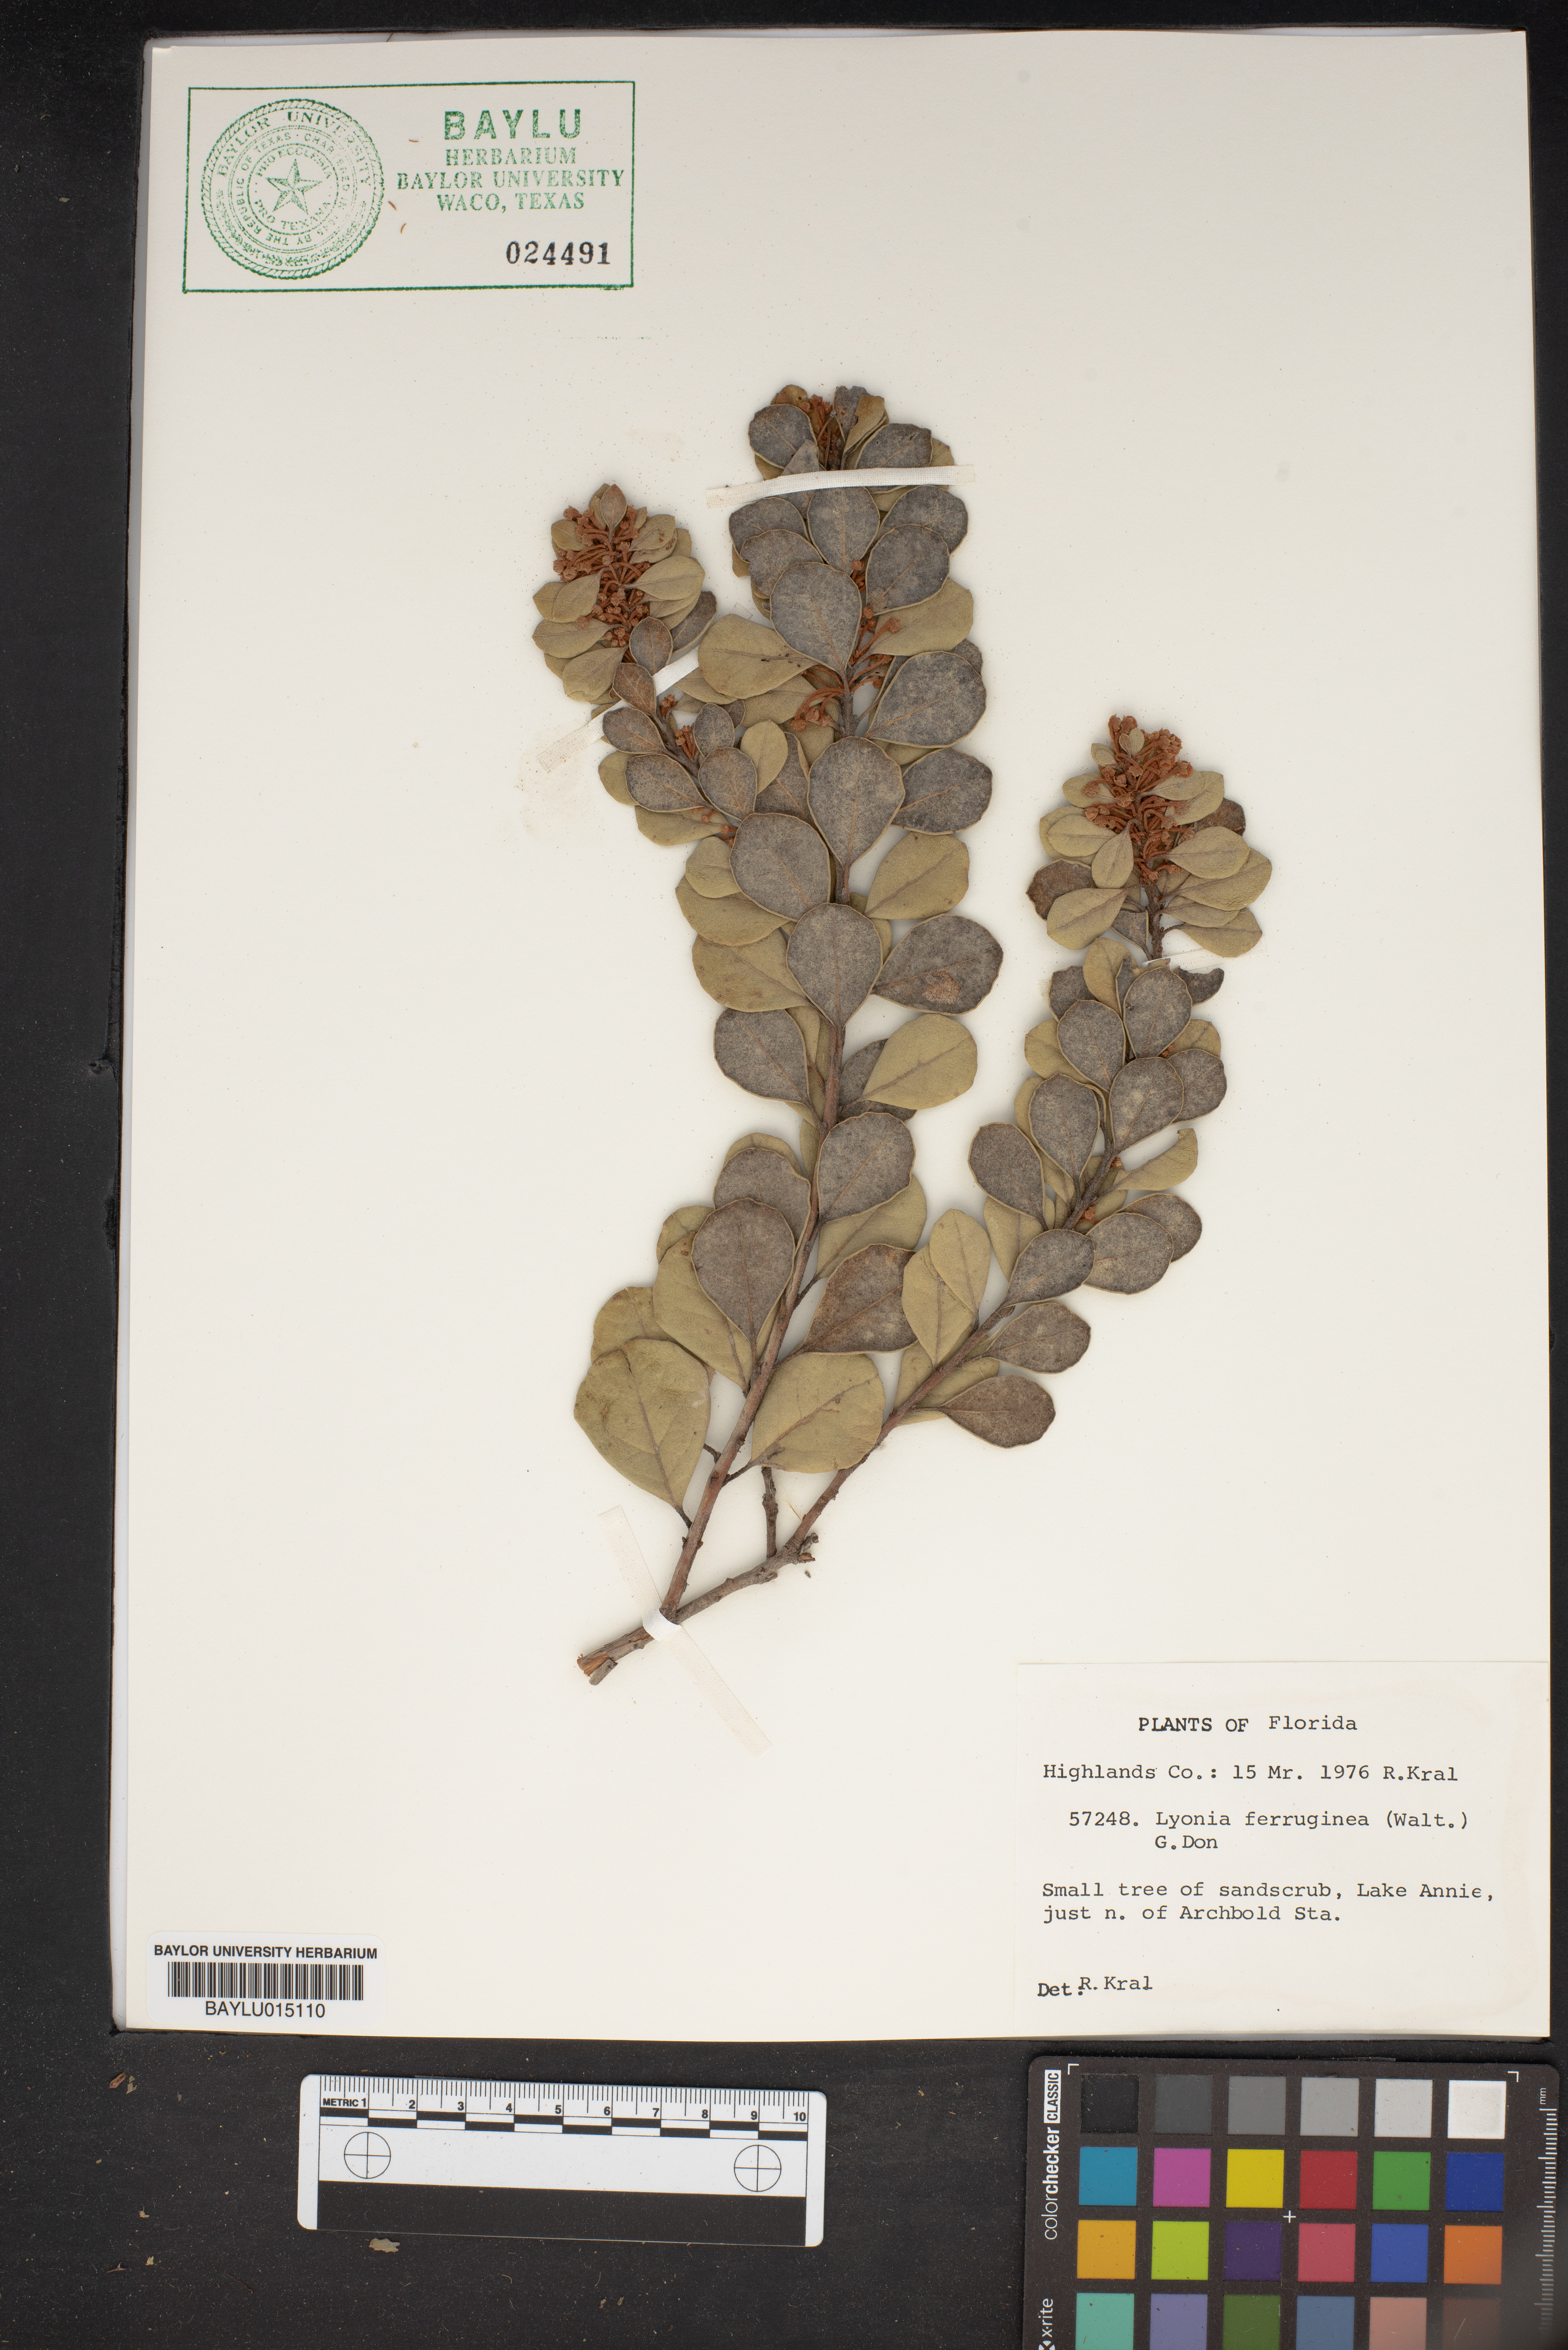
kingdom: Plantae
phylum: Tracheophyta
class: Magnoliopsida
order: Ericales
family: Ericaceae
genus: Lyonia
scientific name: Lyonia ferruginea
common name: Rusty lyonia
